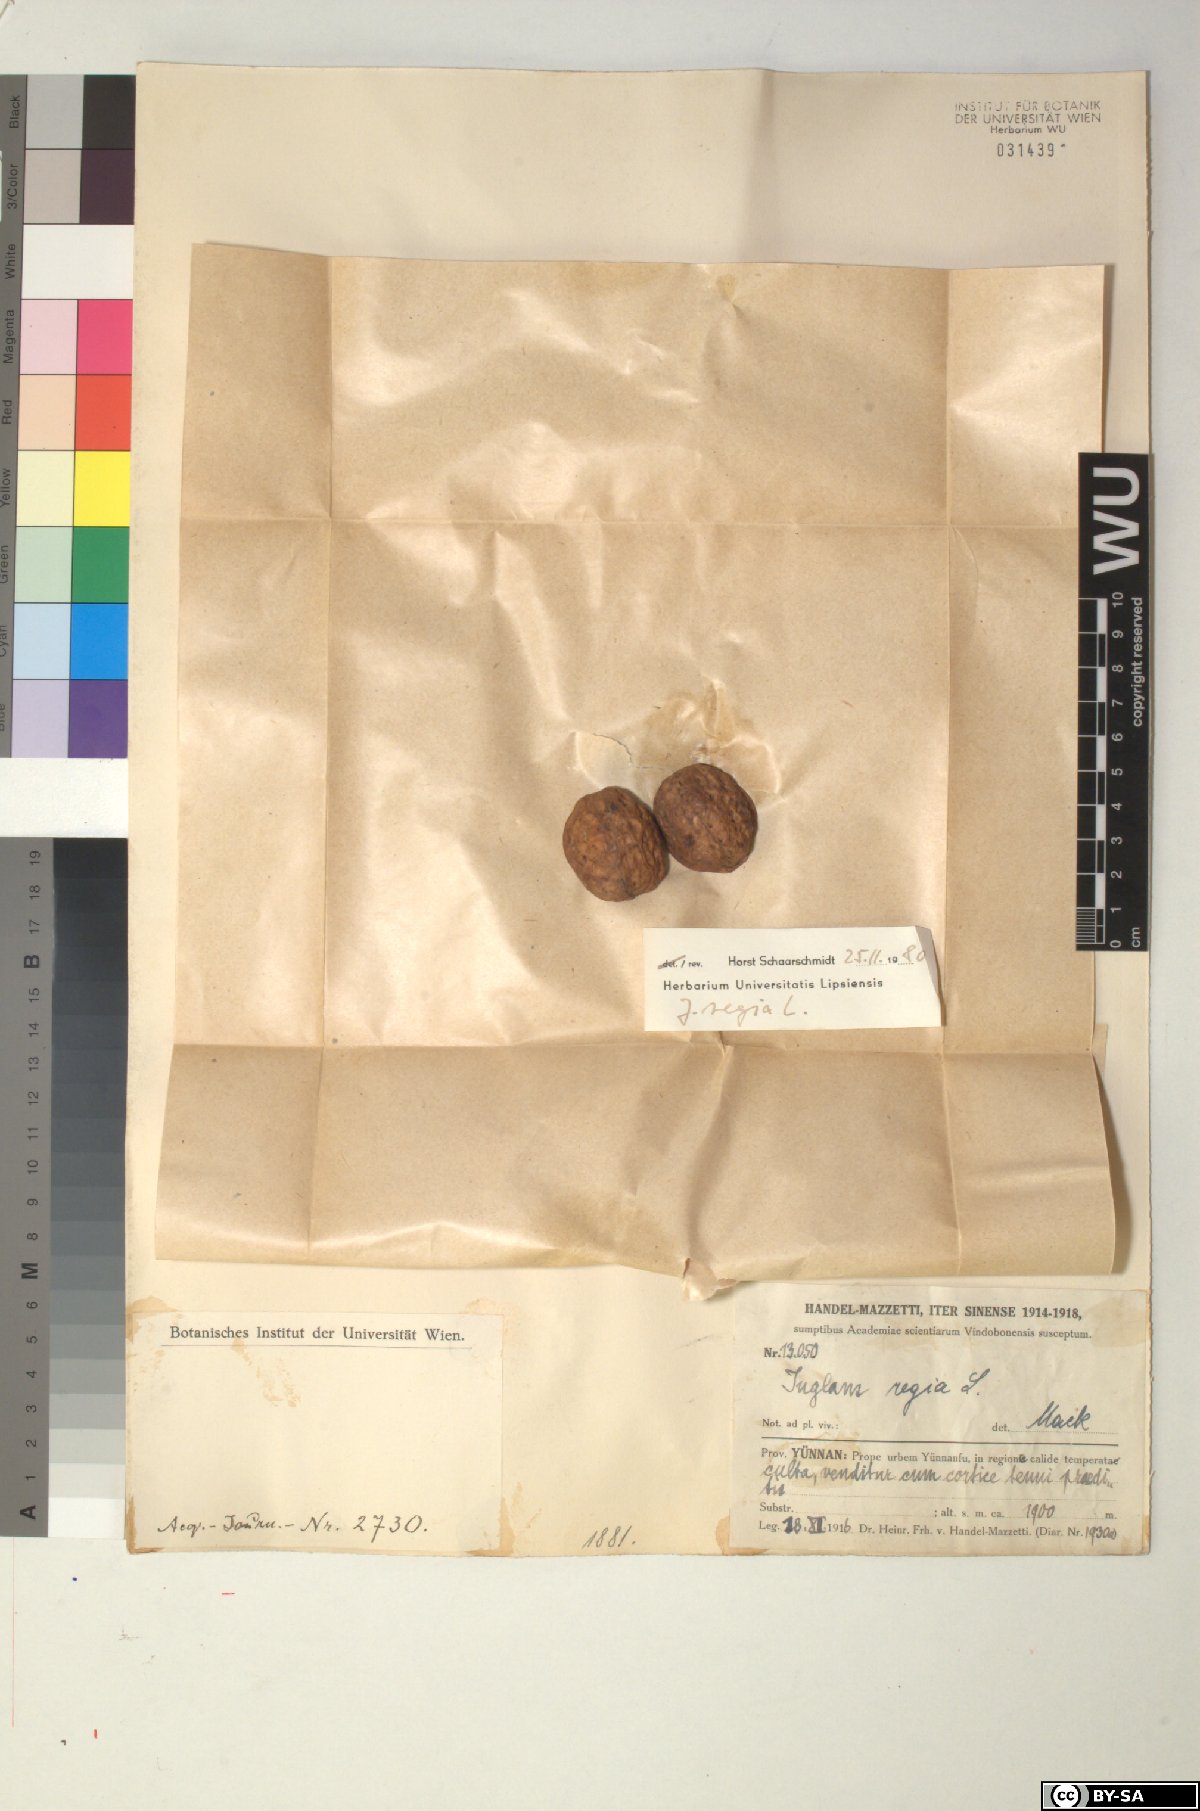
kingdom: Plantae
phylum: Tracheophyta
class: Magnoliopsida
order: Fagales
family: Juglandaceae
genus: Juglans
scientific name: Juglans regia
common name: Walnut
